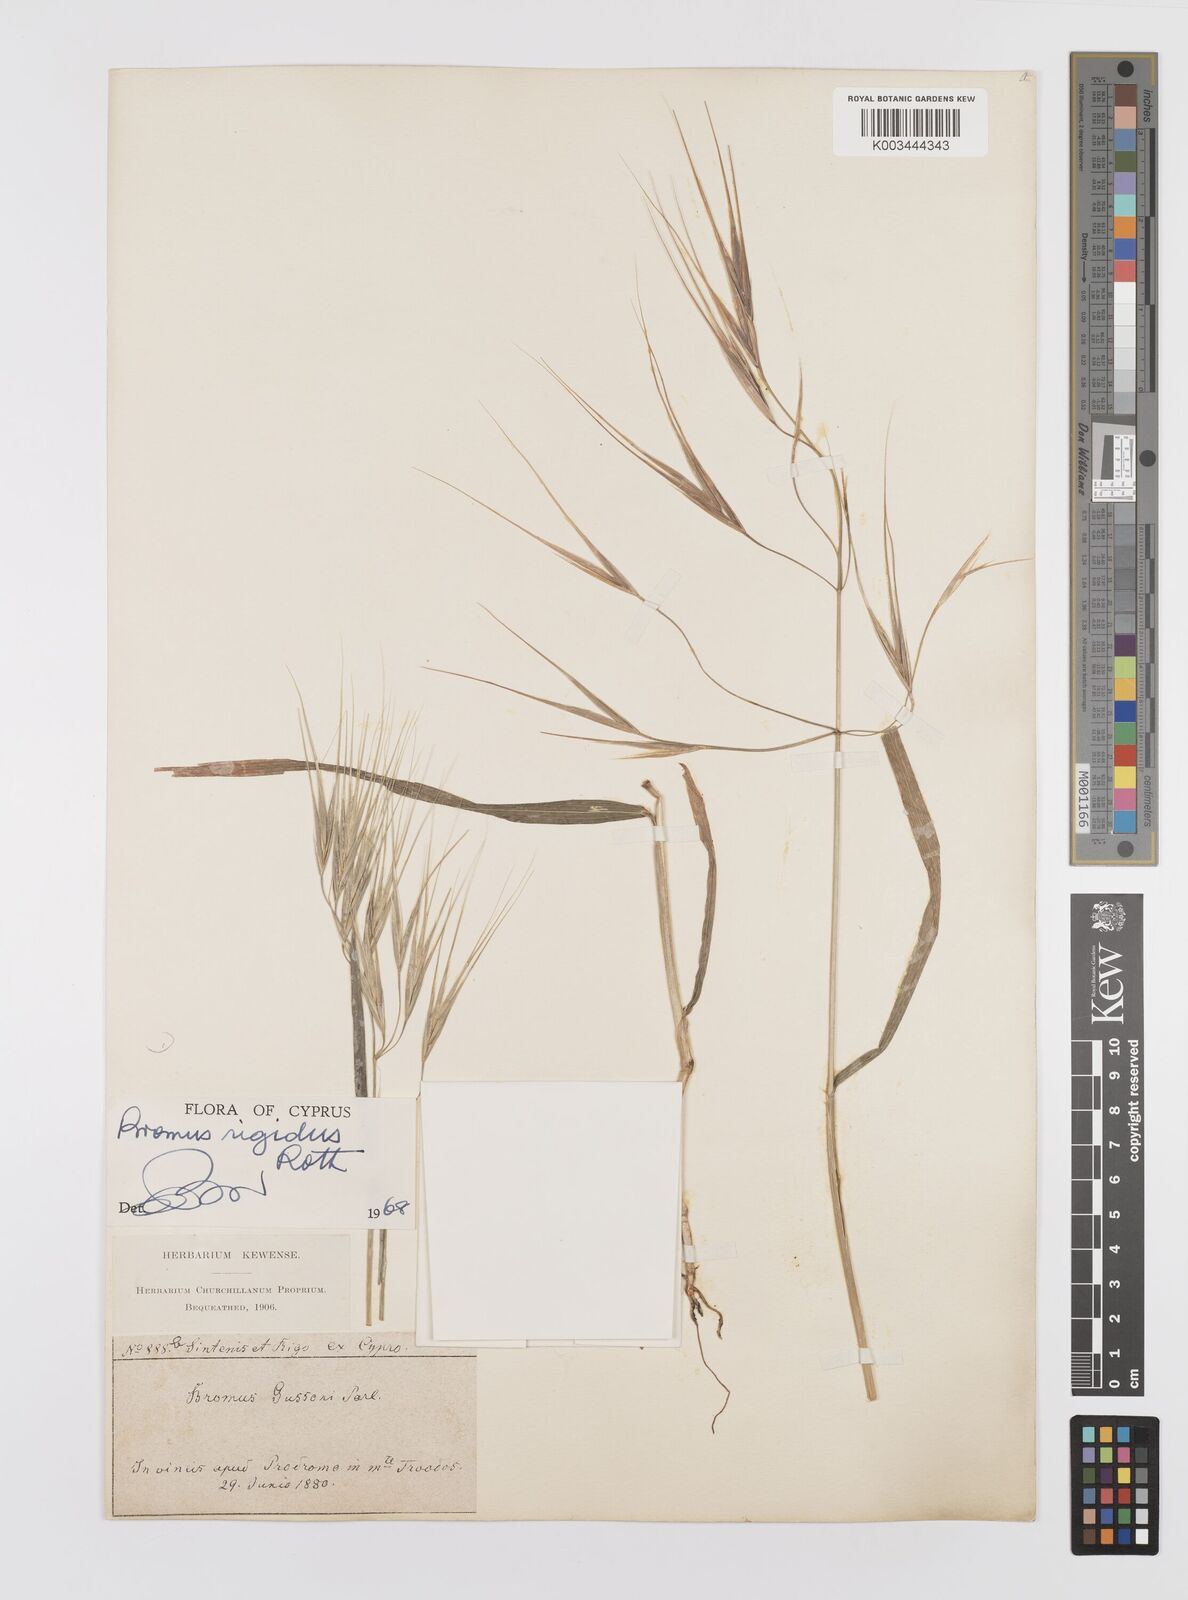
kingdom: Plantae
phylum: Tracheophyta
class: Liliopsida
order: Poales
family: Poaceae
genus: Bromus
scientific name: Bromus diandrus
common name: Ripgut brome
